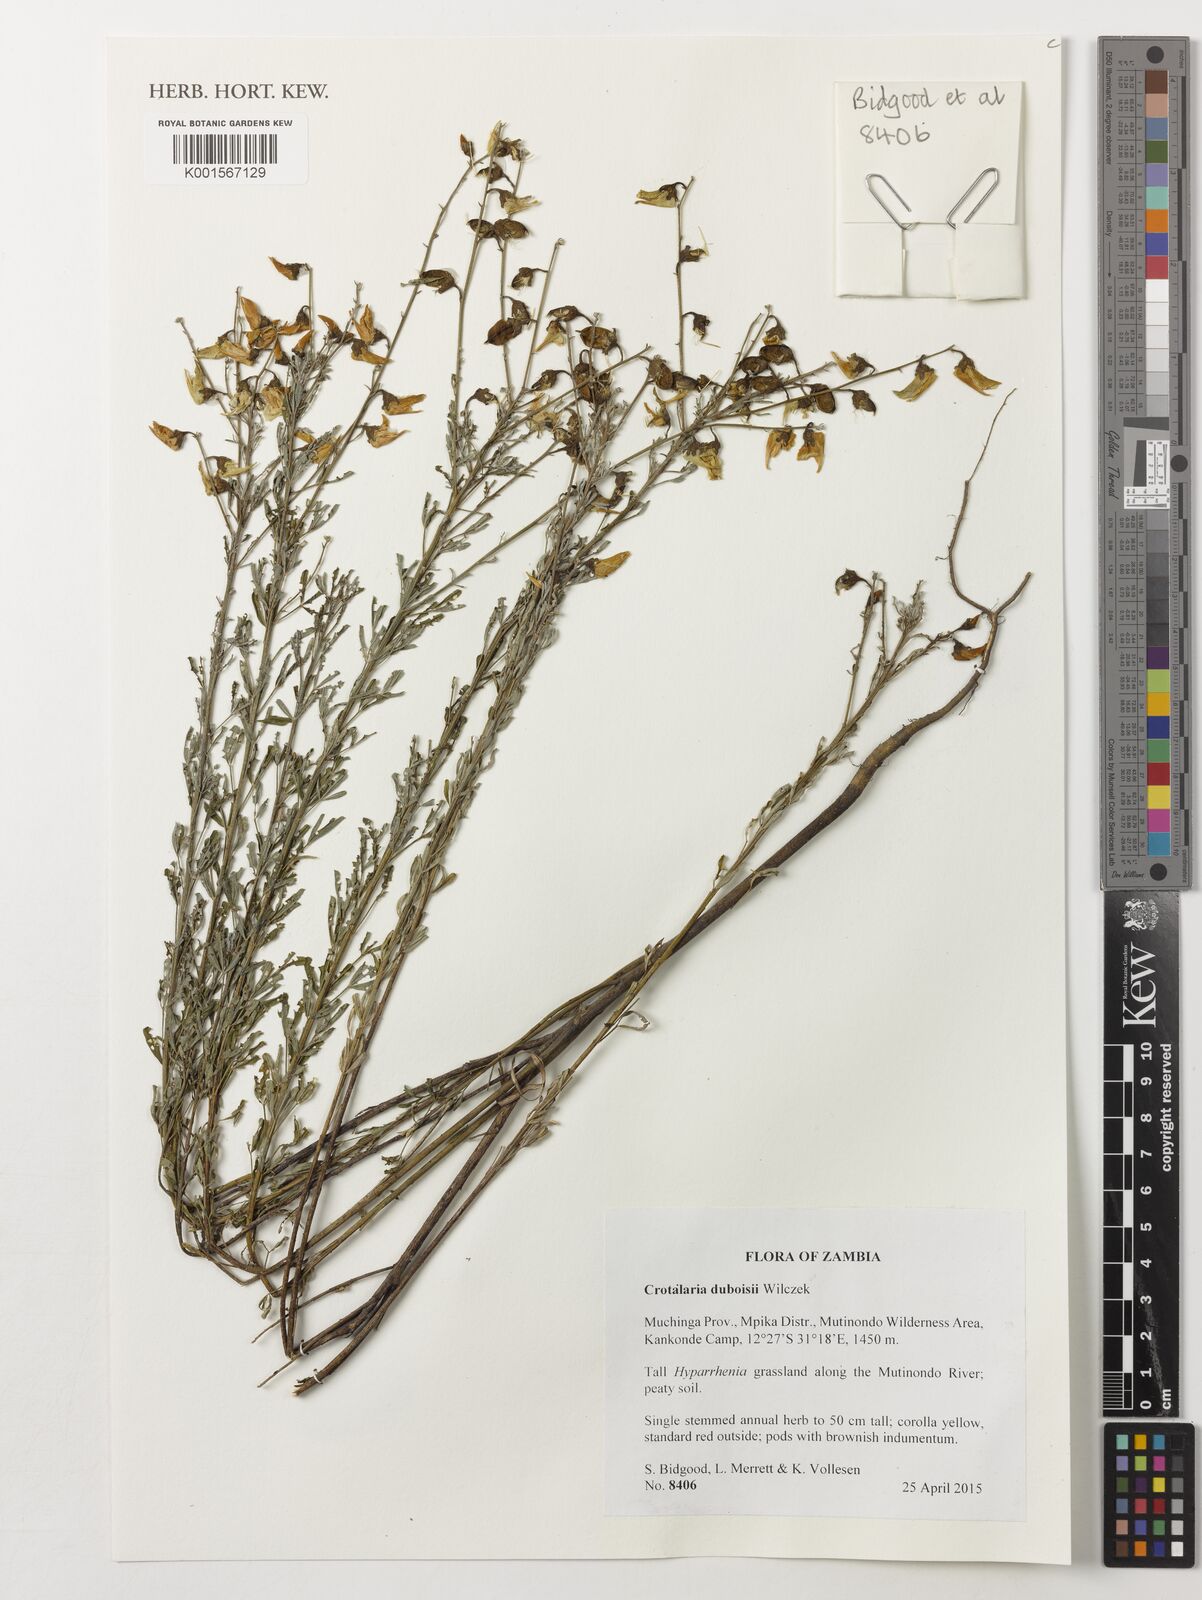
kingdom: Plantae
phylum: Tracheophyta
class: Magnoliopsida
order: Fabales
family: Fabaceae
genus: Crotalaria
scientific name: Crotalaria duboisii
